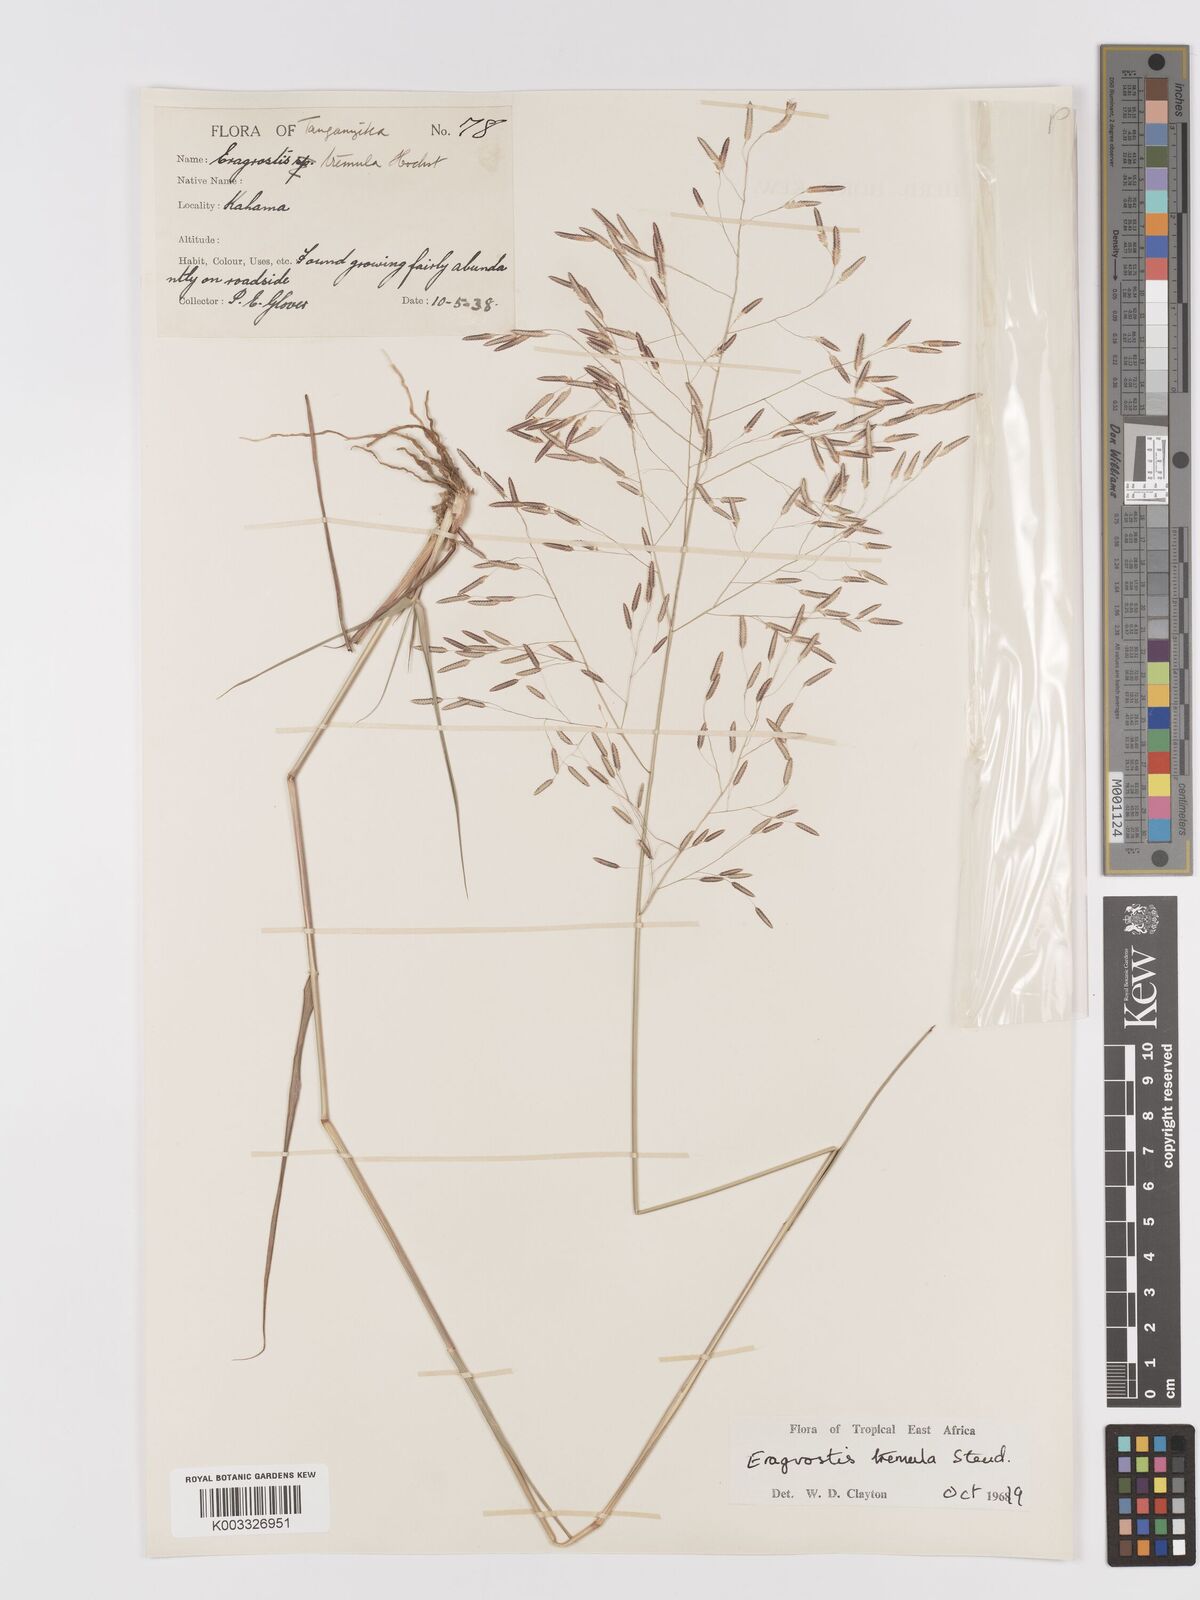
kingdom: Plantae
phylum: Tracheophyta
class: Liliopsida
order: Poales
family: Poaceae
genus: Eragrostis
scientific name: Eragrostis tremula
